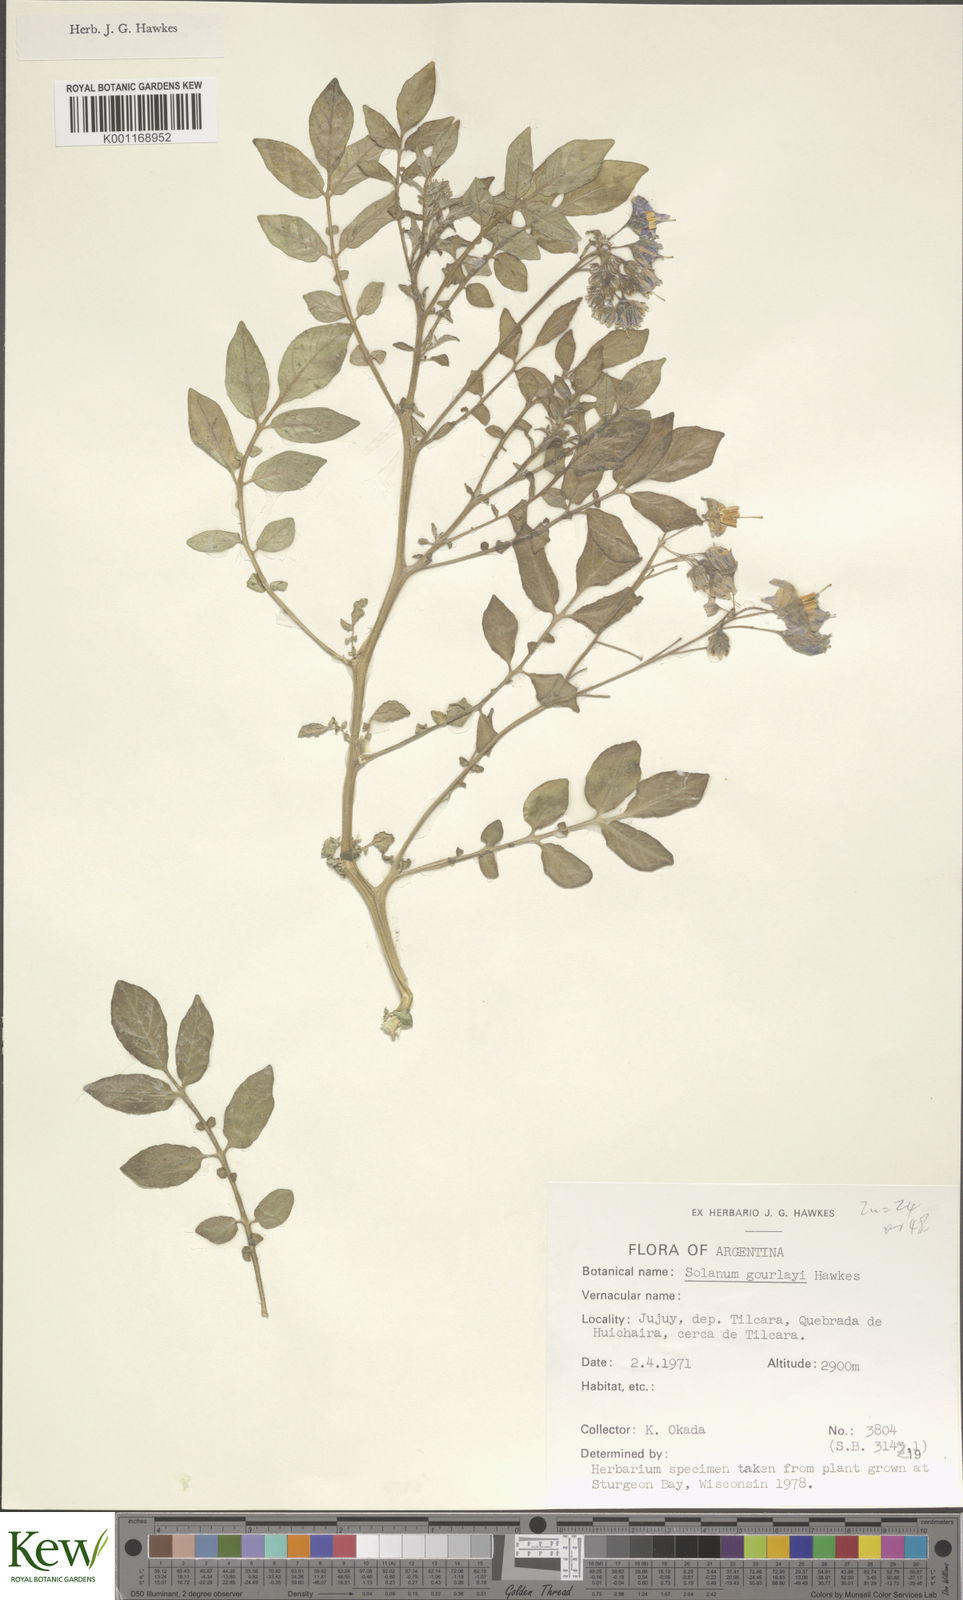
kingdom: Plantae
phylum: Tracheophyta
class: Magnoliopsida
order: Solanales
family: Solanaceae
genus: Solanum
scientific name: Solanum brevicaule
